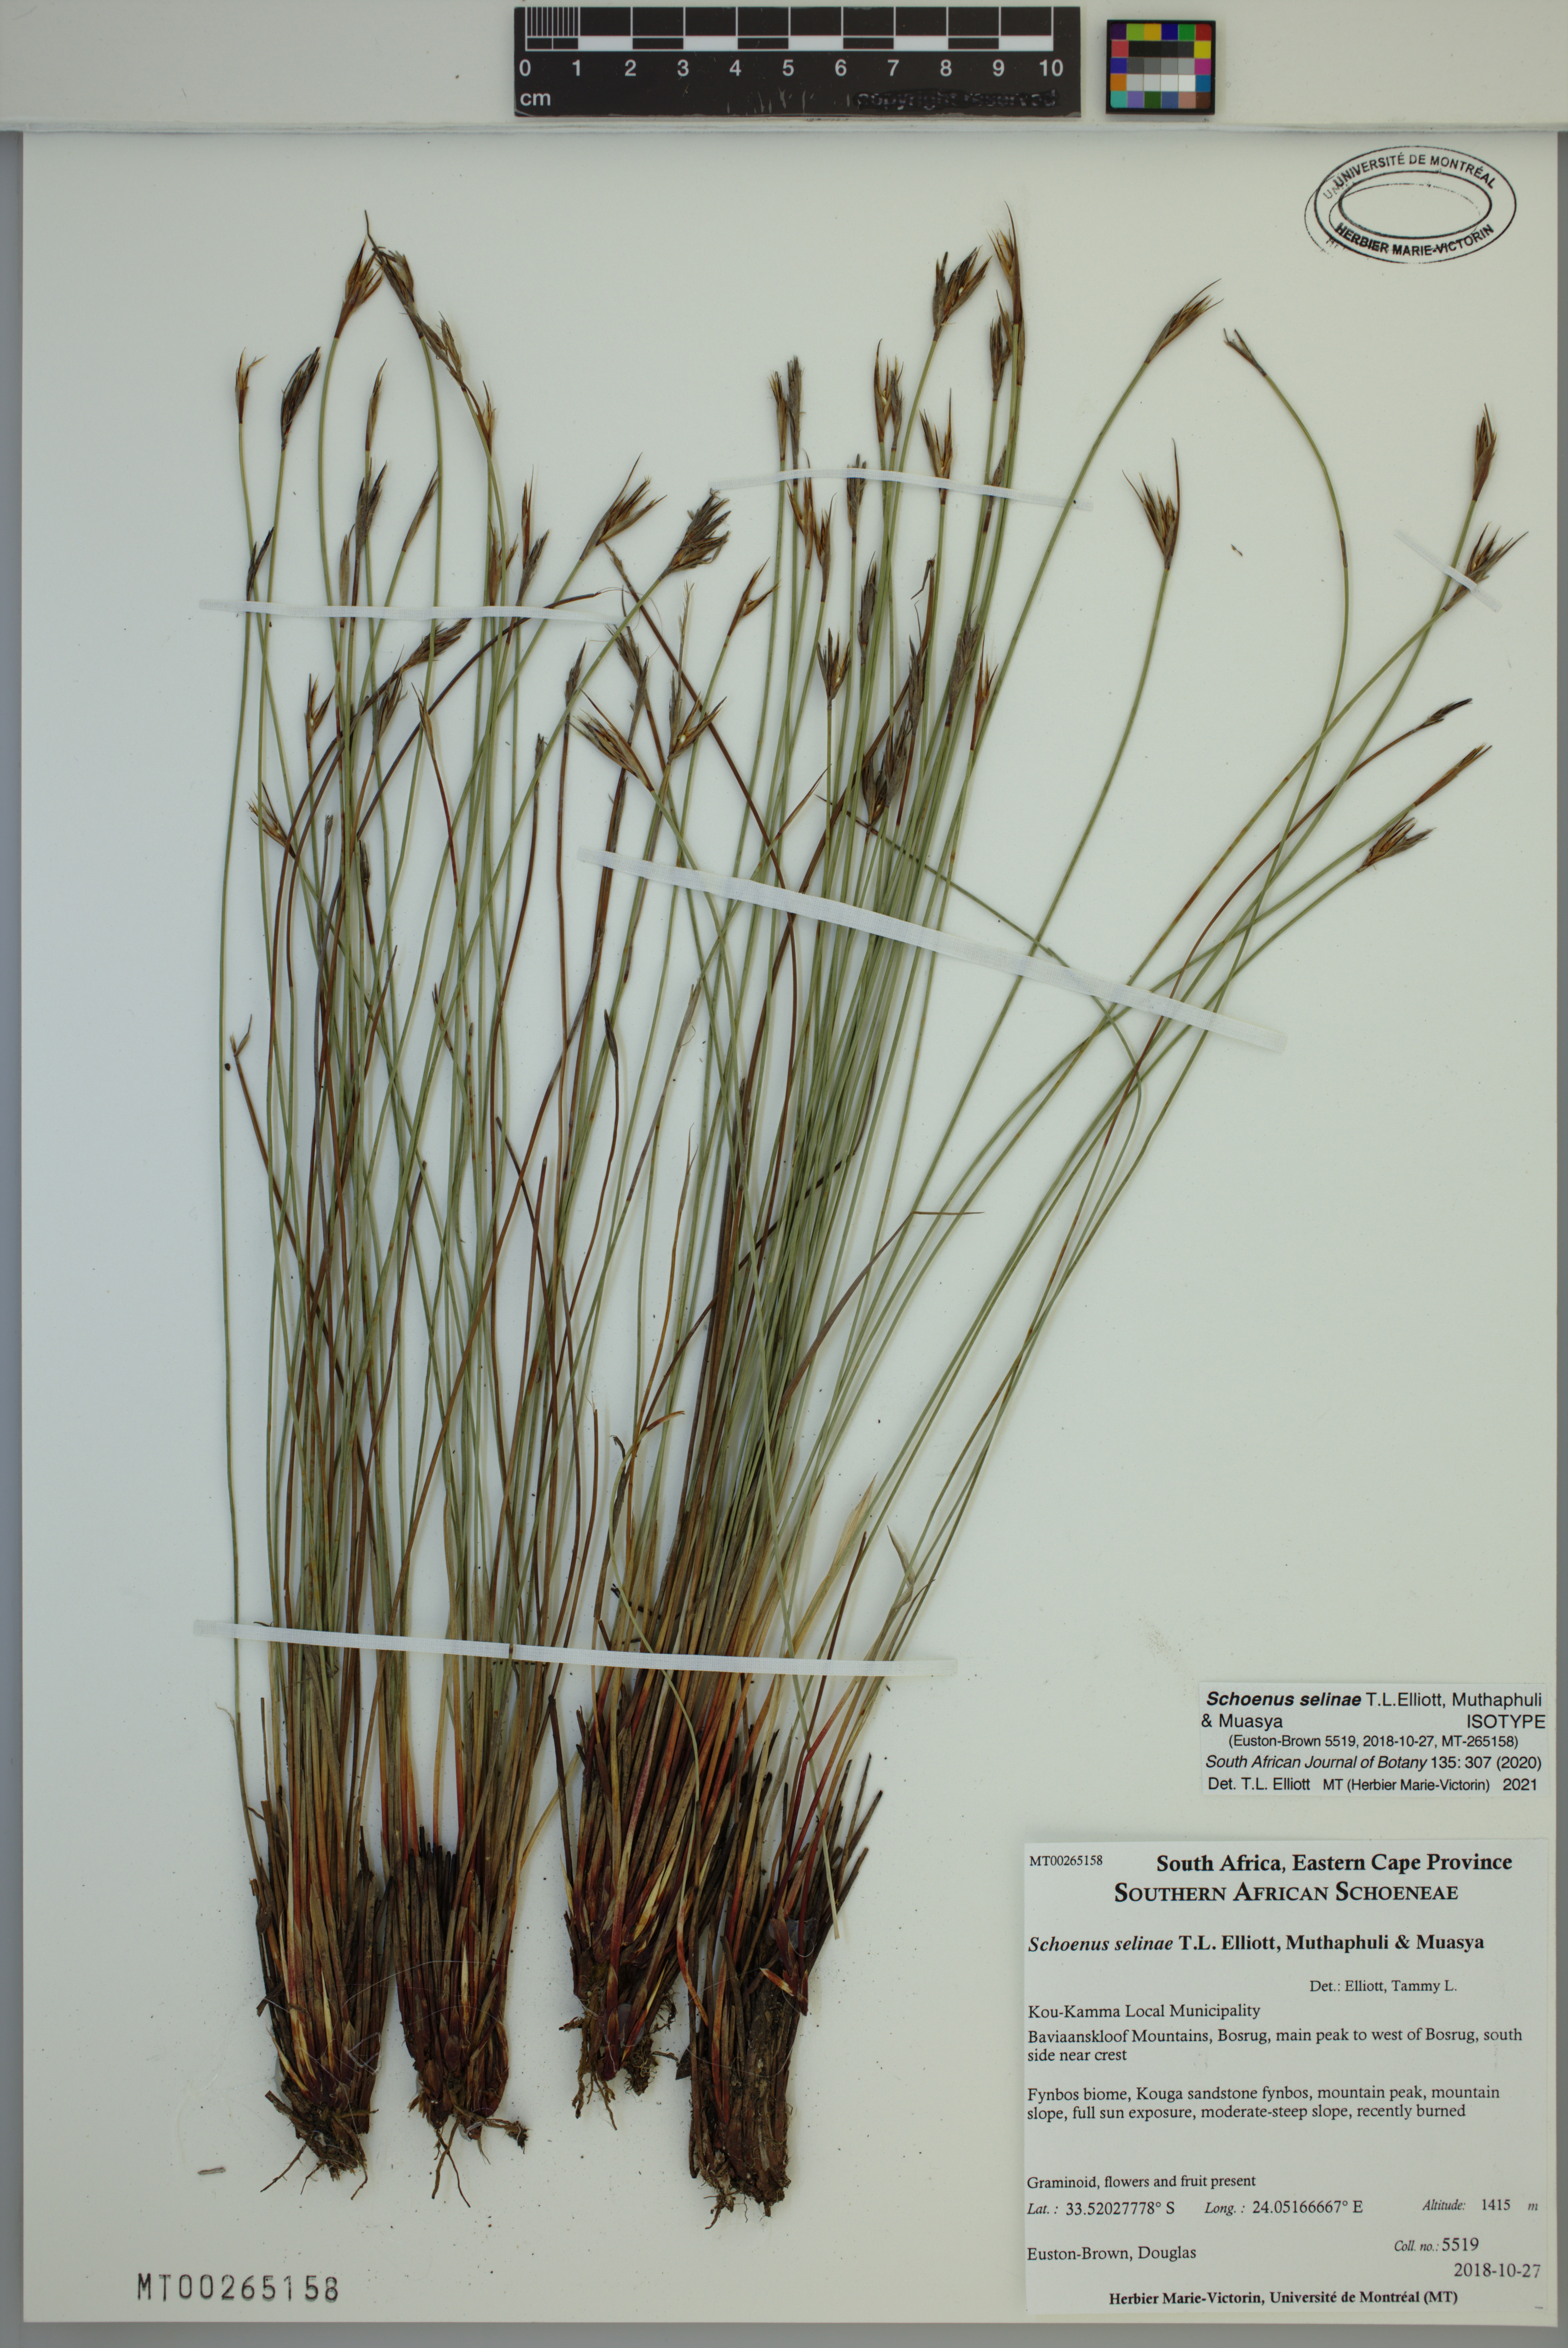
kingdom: Plantae
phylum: Tracheophyta
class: Liliopsida
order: Poales
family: Cyperaceae
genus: Schoenus
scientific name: Schoenus selinae
